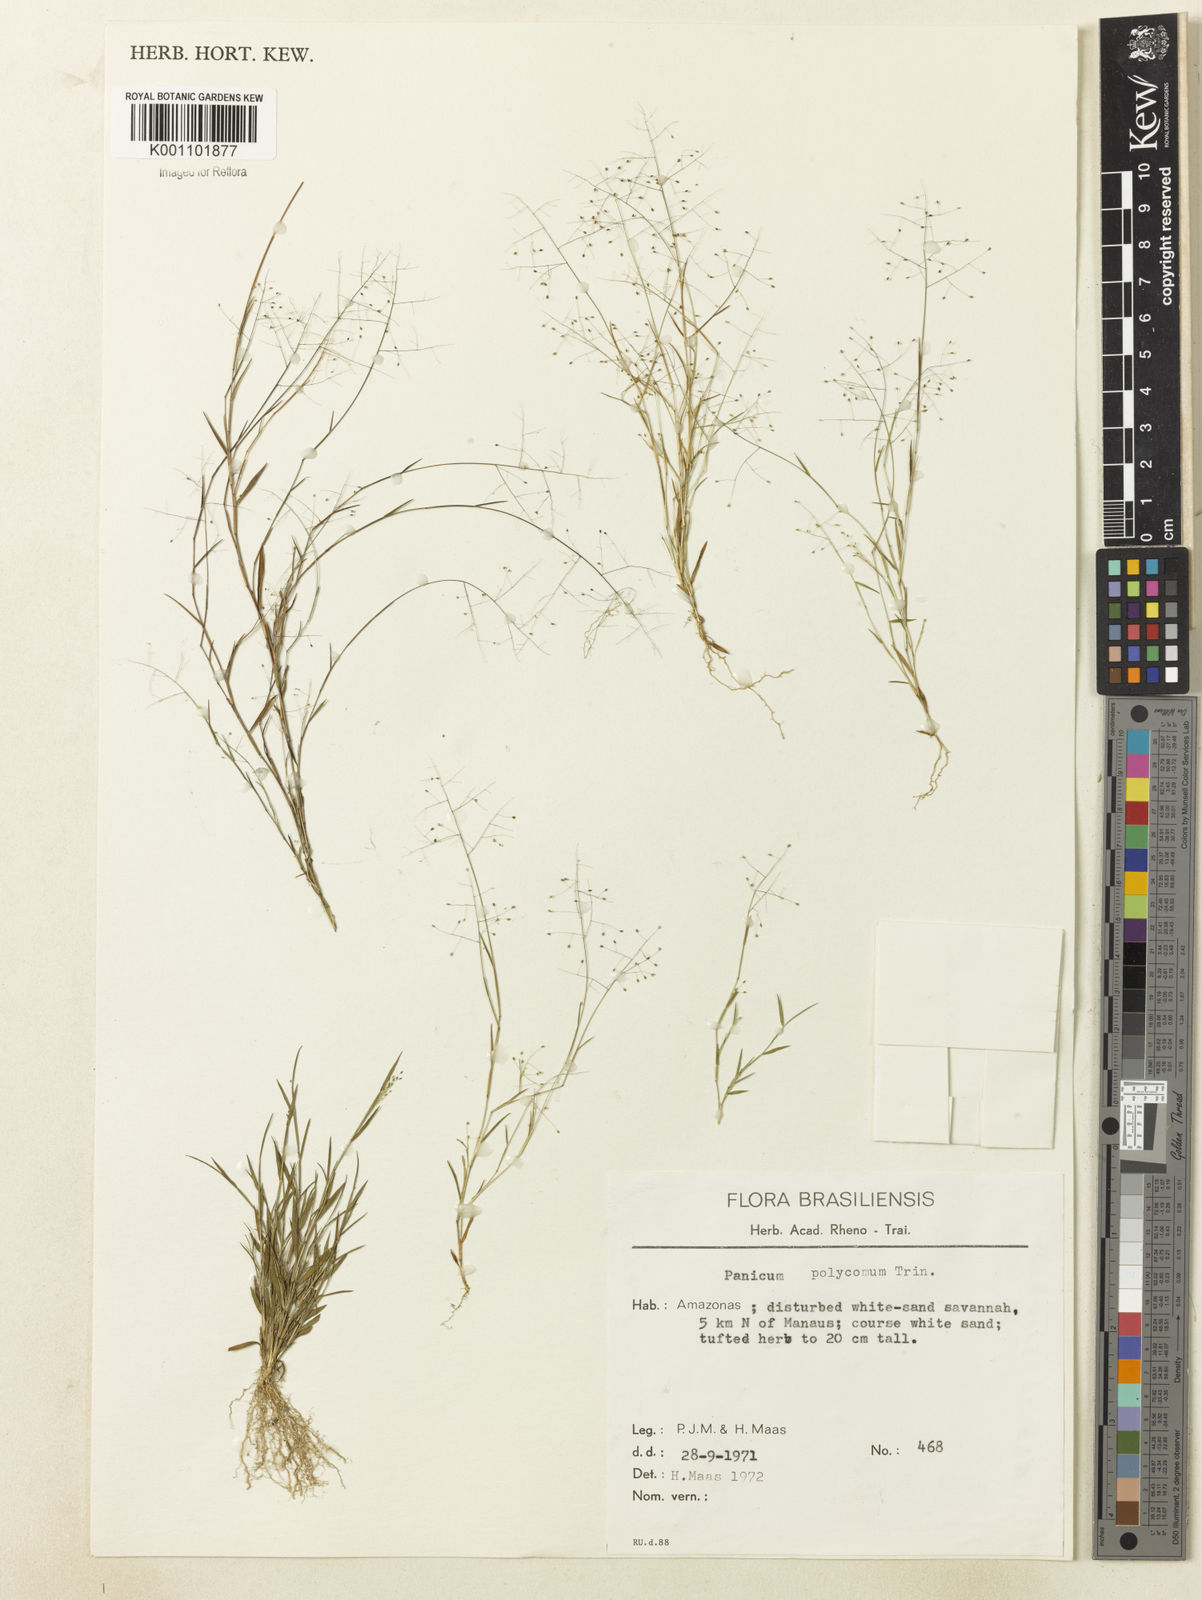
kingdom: Plantae
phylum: Tracheophyta
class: Liliopsida
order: Poales
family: Poaceae
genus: Trichanthecium
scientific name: Trichanthecium polycomum
